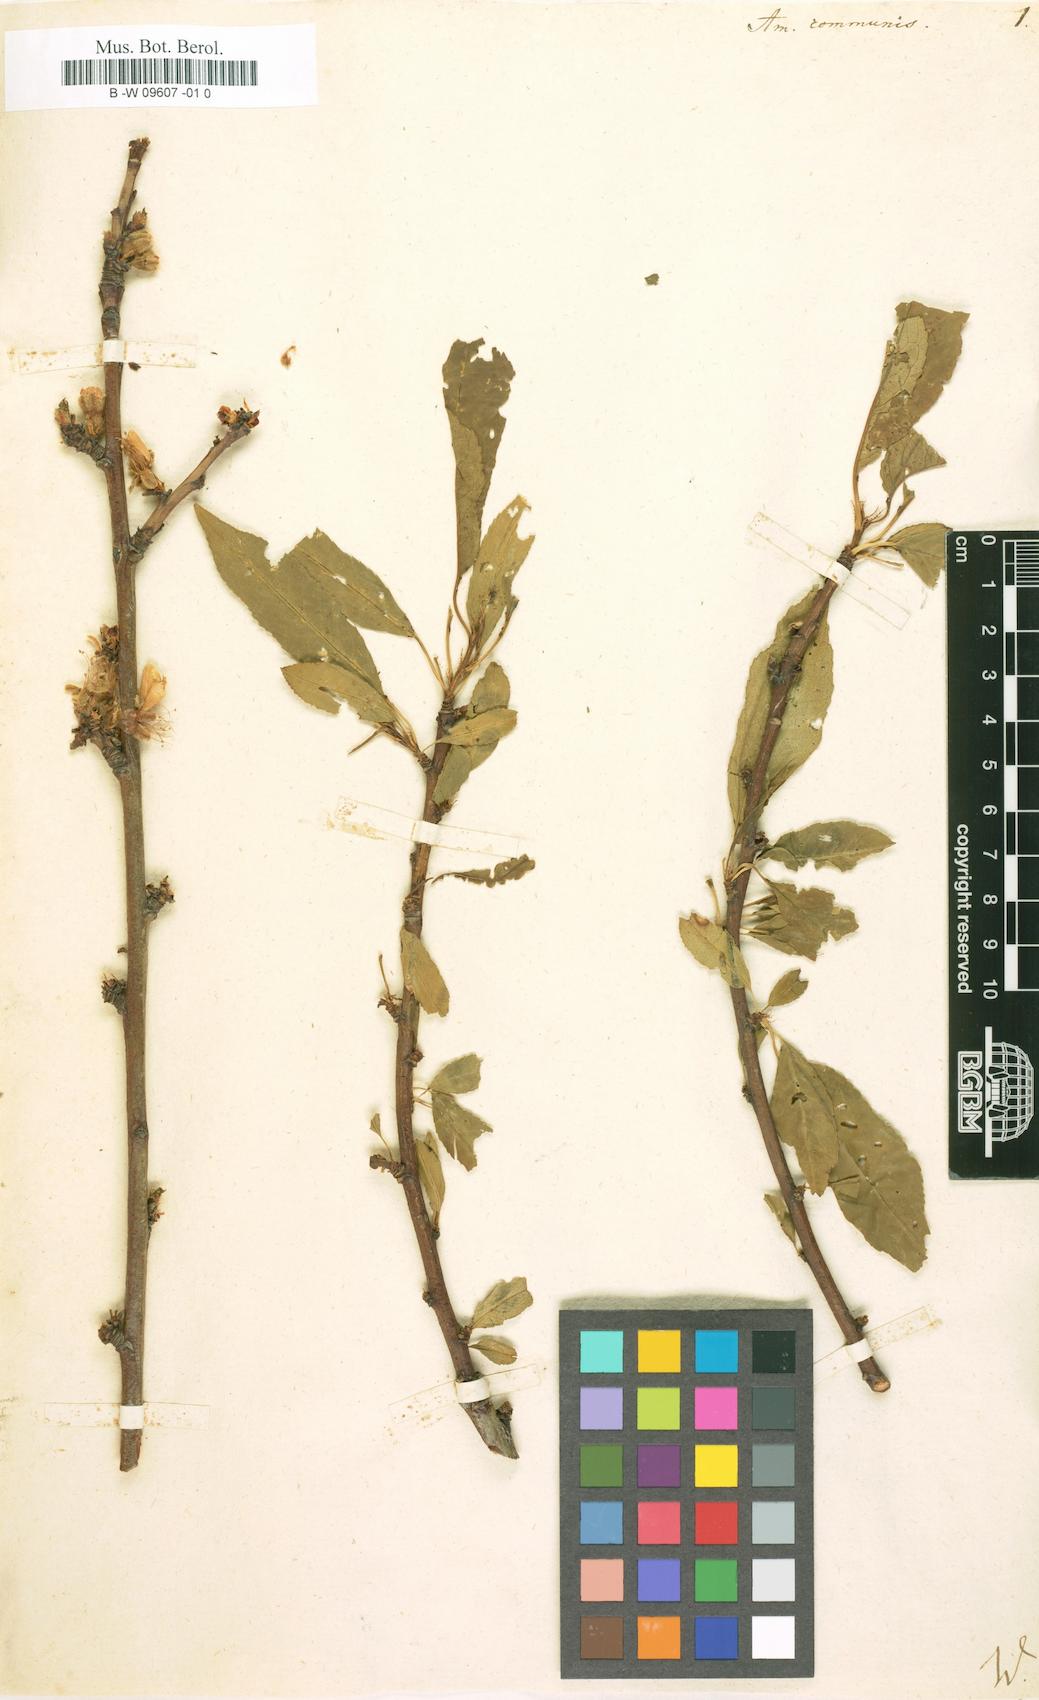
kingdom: Plantae
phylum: Tracheophyta
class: Magnoliopsida
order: Rosales
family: Rosaceae
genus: Prunus
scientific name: Prunus amygdalus
